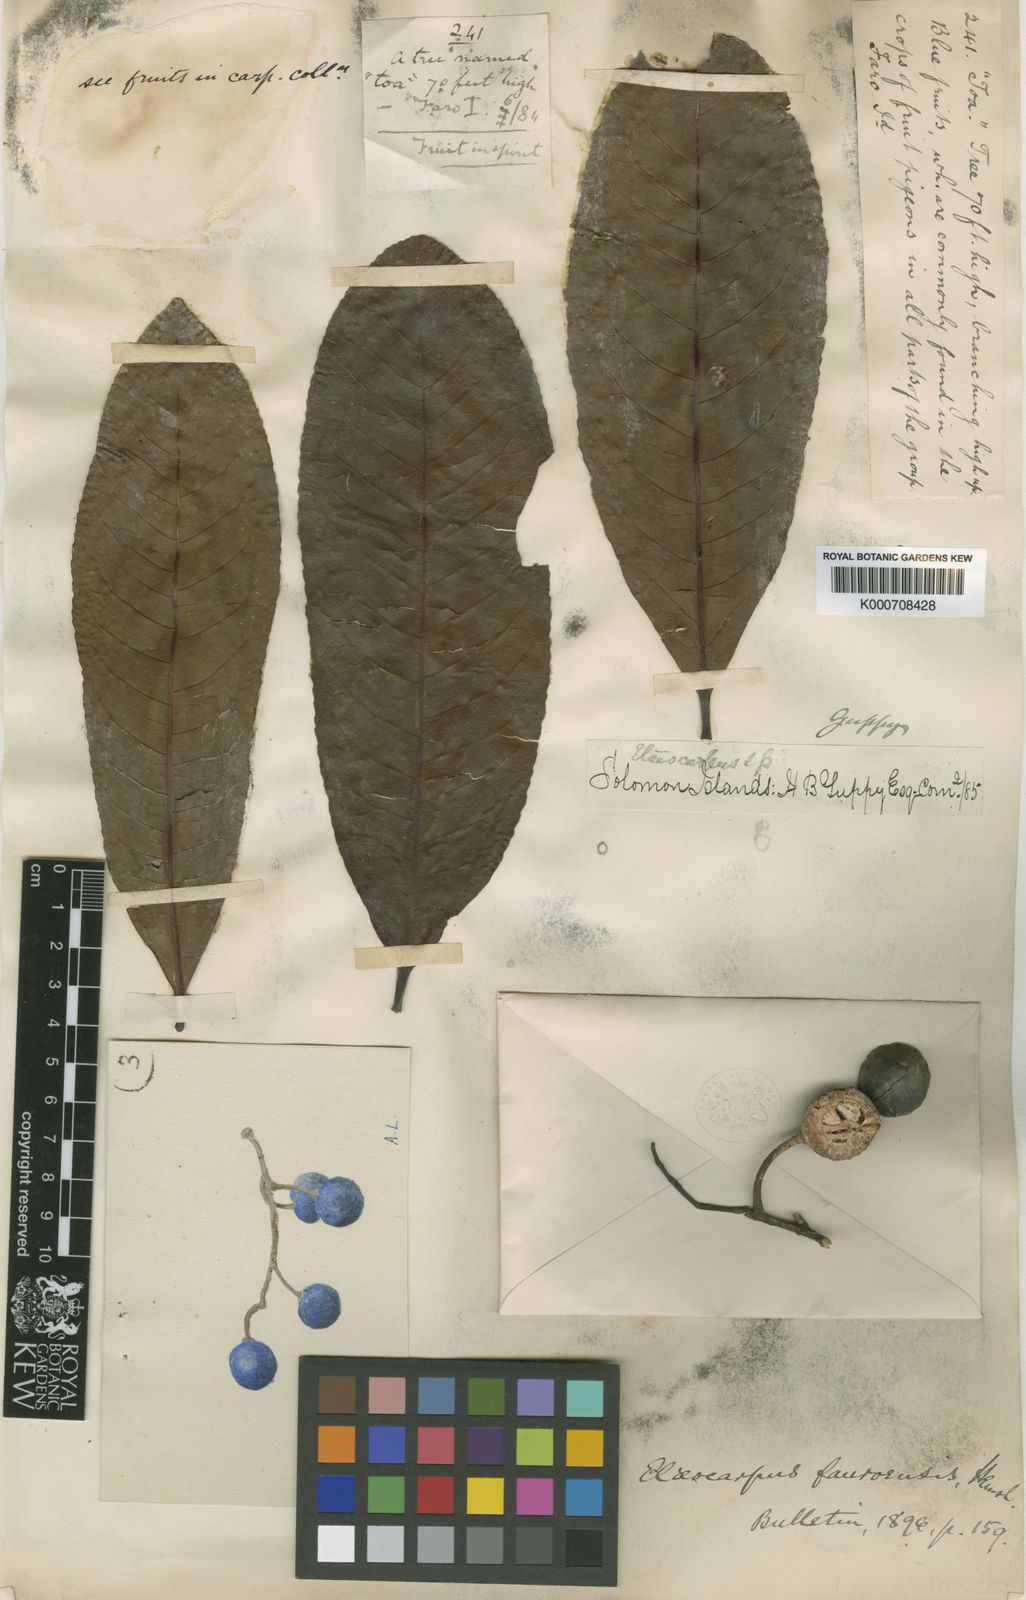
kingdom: Plantae
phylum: Tracheophyta
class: Magnoliopsida
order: Oxalidales
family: Elaeocarpaceae
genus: Elaeocarpus
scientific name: Elaeocarpus angustifolius
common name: Blue marble tree
